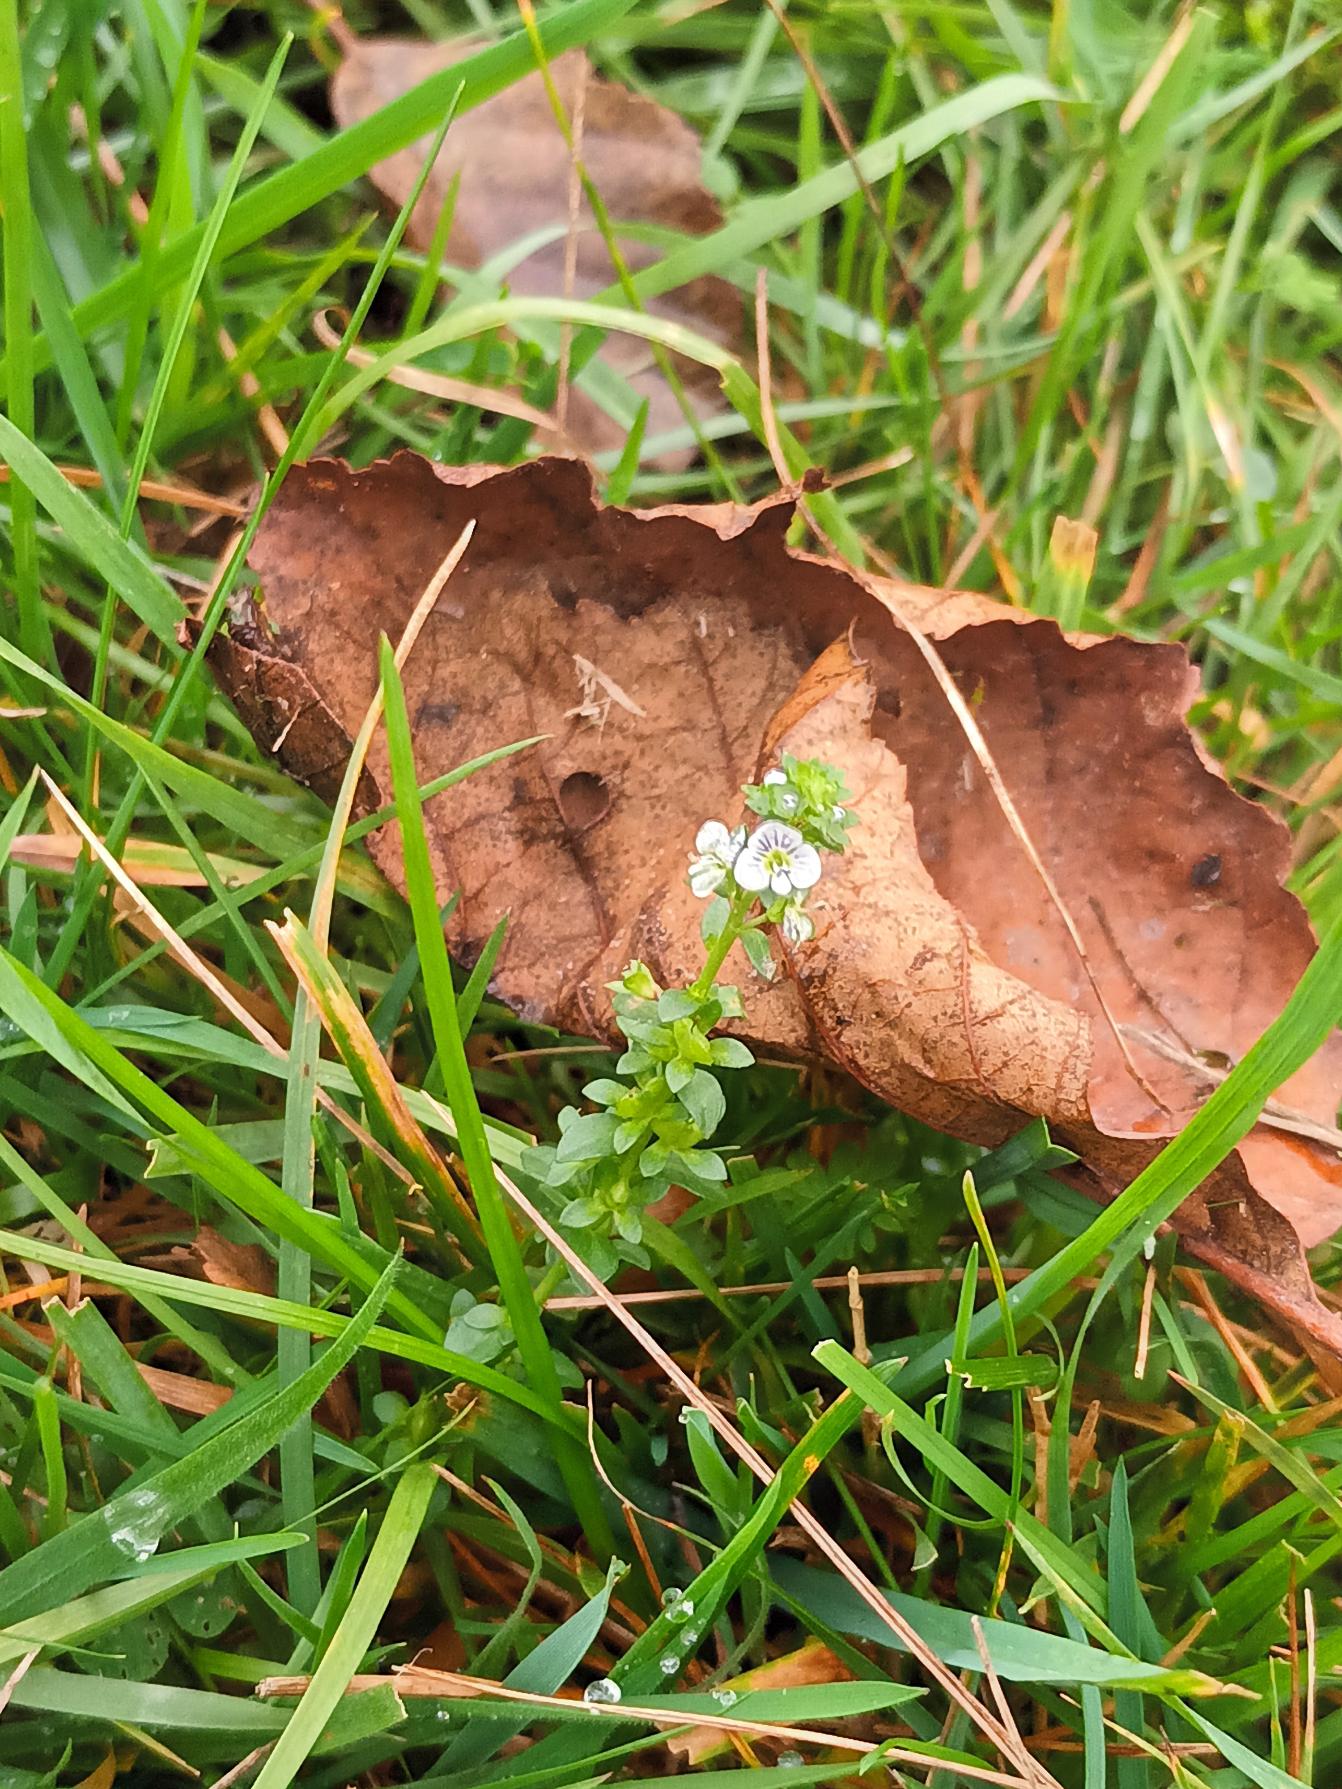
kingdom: Plantae
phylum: Tracheophyta
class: Magnoliopsida
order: Lamiales
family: Plantaginaceae
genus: Veronica
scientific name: Veronica serpyllifolia
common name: Glat ærenpris
